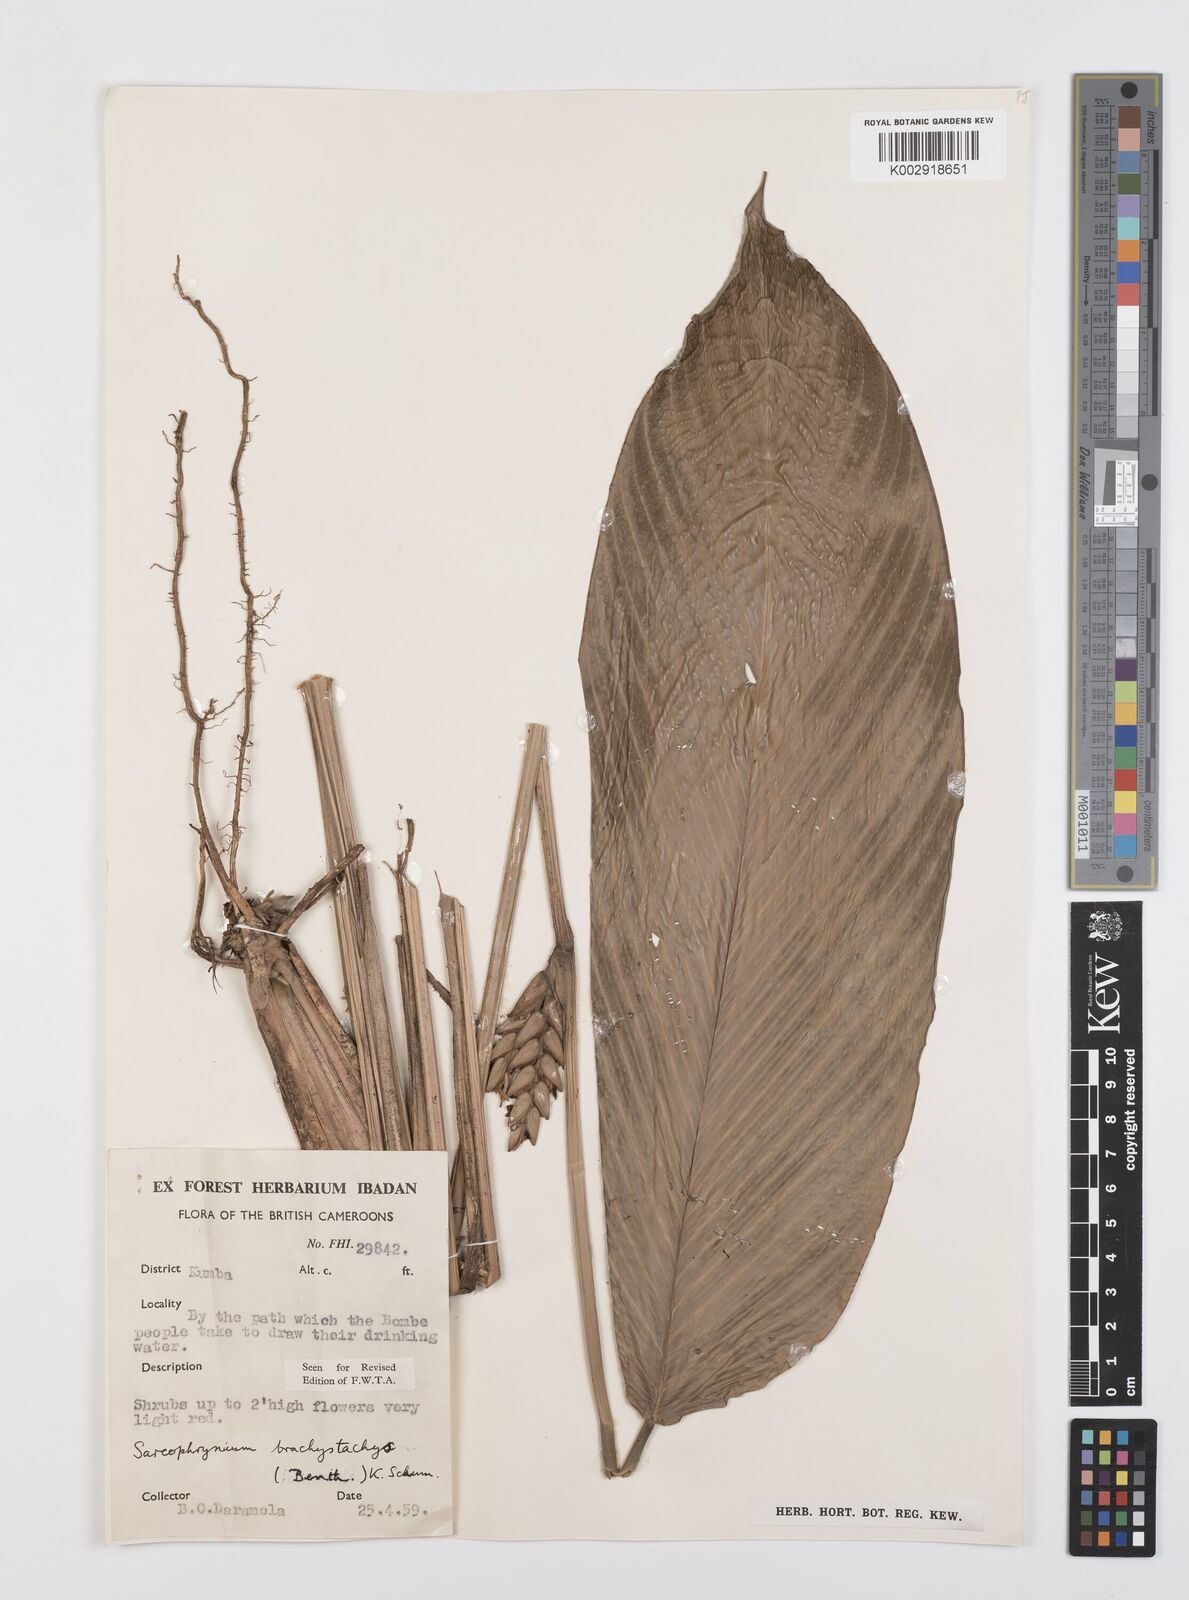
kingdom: Plantae
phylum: Tracheophyta
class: Liliopsida
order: Zingiberales
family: Marantaceae
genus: Sarcophrynium
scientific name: Sarcophrynium brachystachyum
